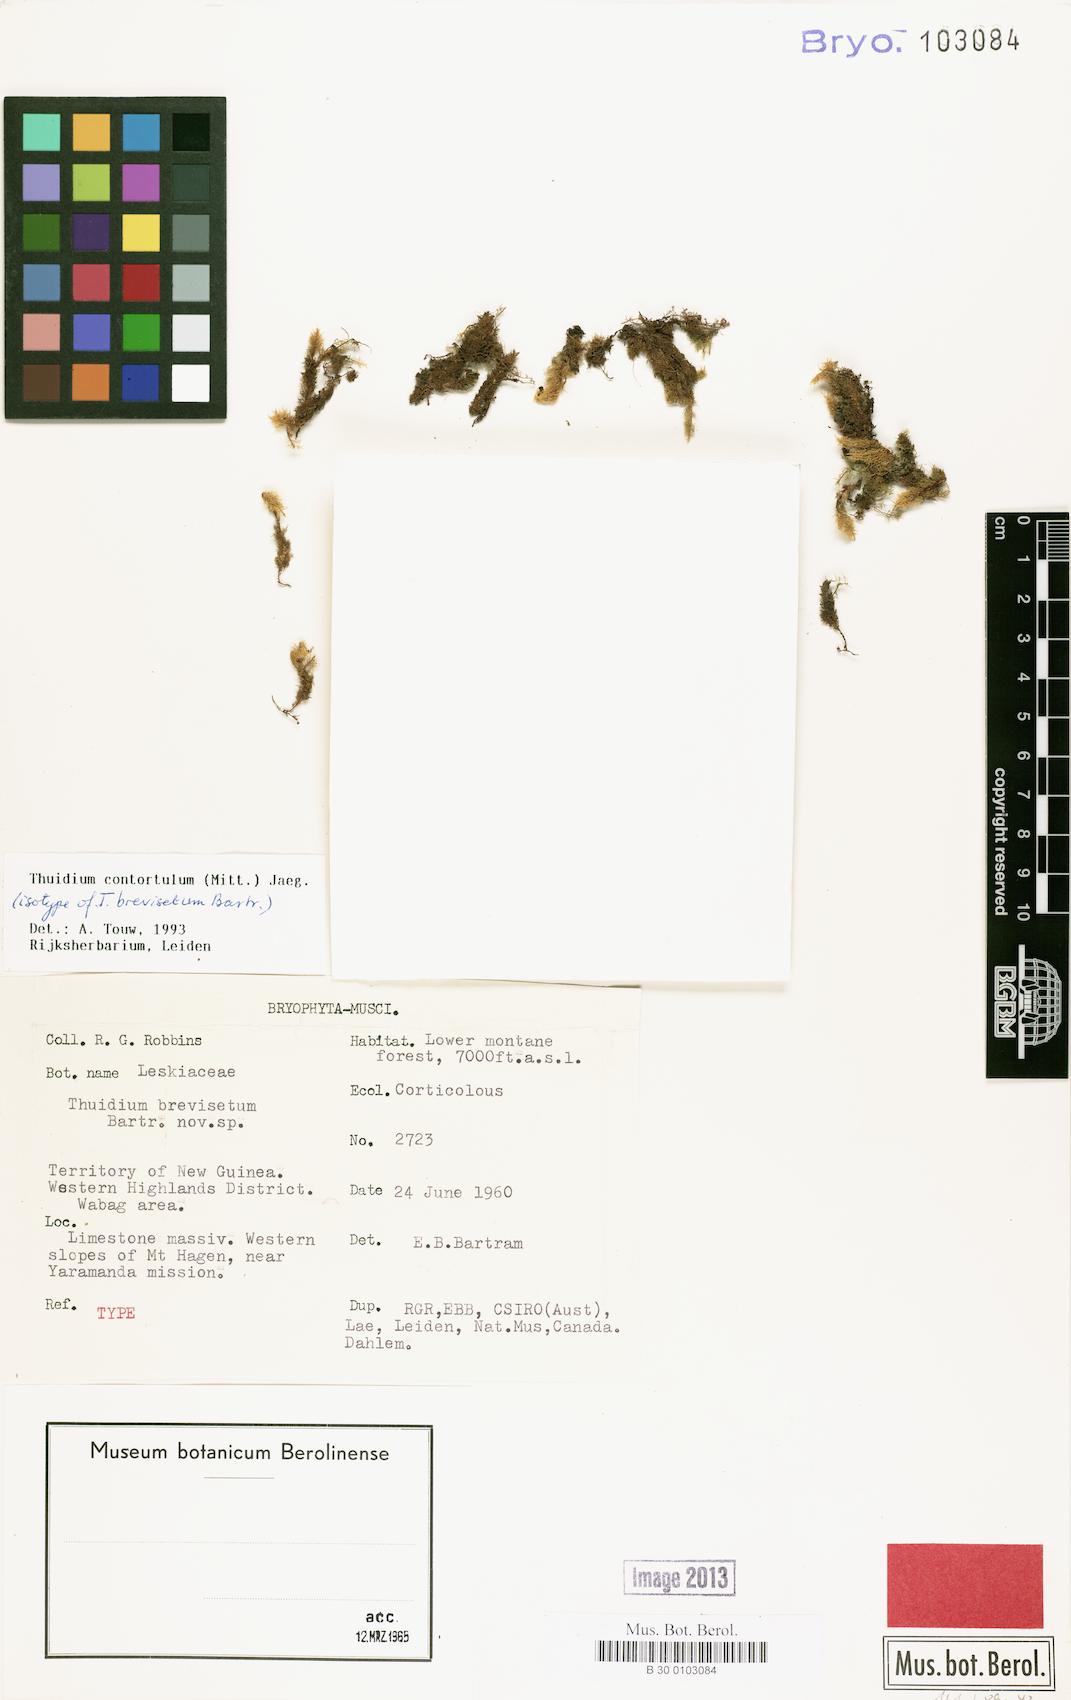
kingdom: Plantae
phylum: Bryophyta
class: Bryopsida
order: Hypnales
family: Thuidiaceae
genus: Pelekium
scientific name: Pelekium contortulum
